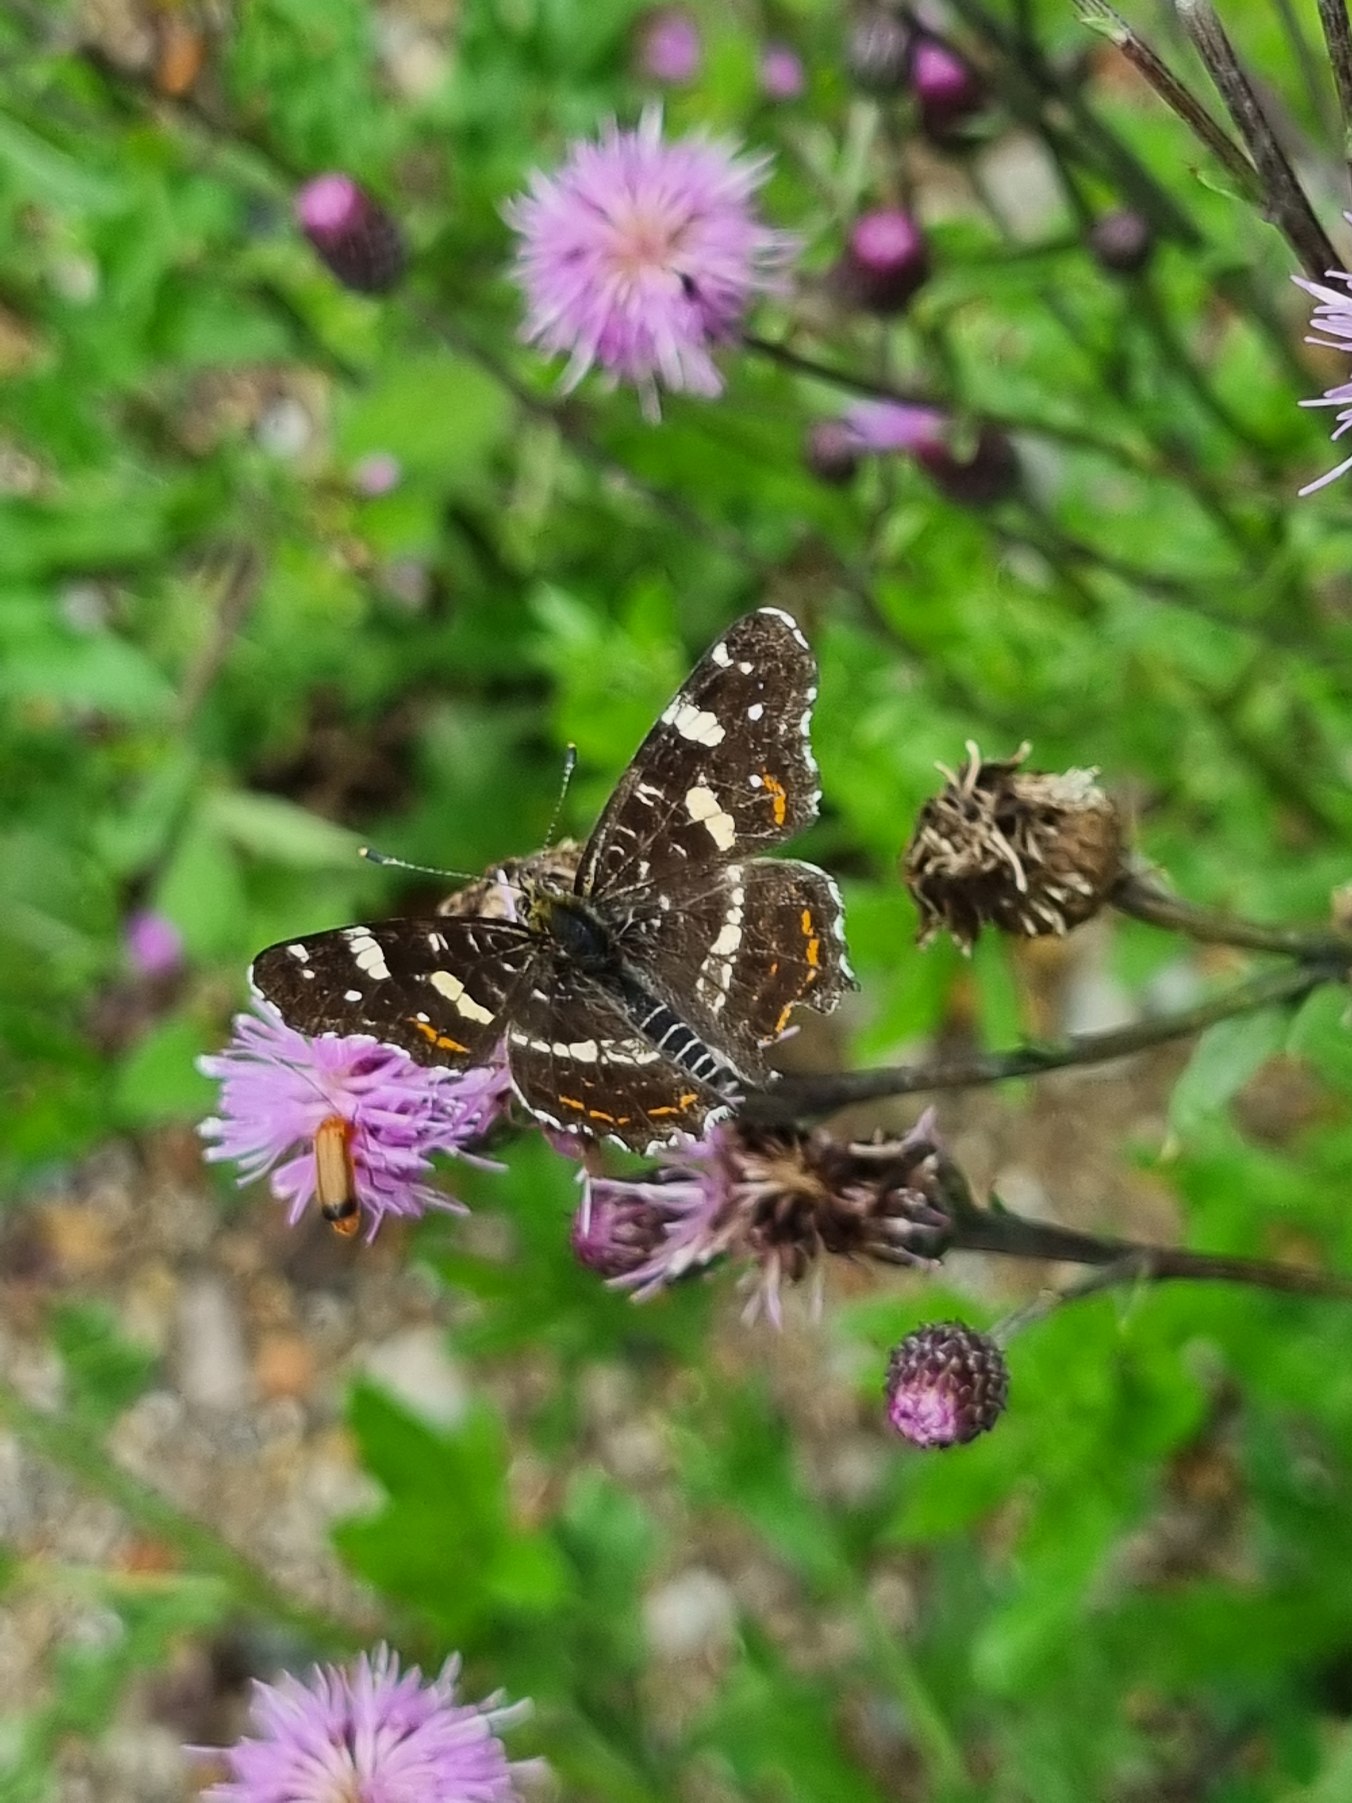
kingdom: Animalia
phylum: Arthropoda
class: Insecta
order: Lepidoptera
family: Nymphalidae
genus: Araschnia
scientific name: Araschnia levana
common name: Nældesommerfugl
